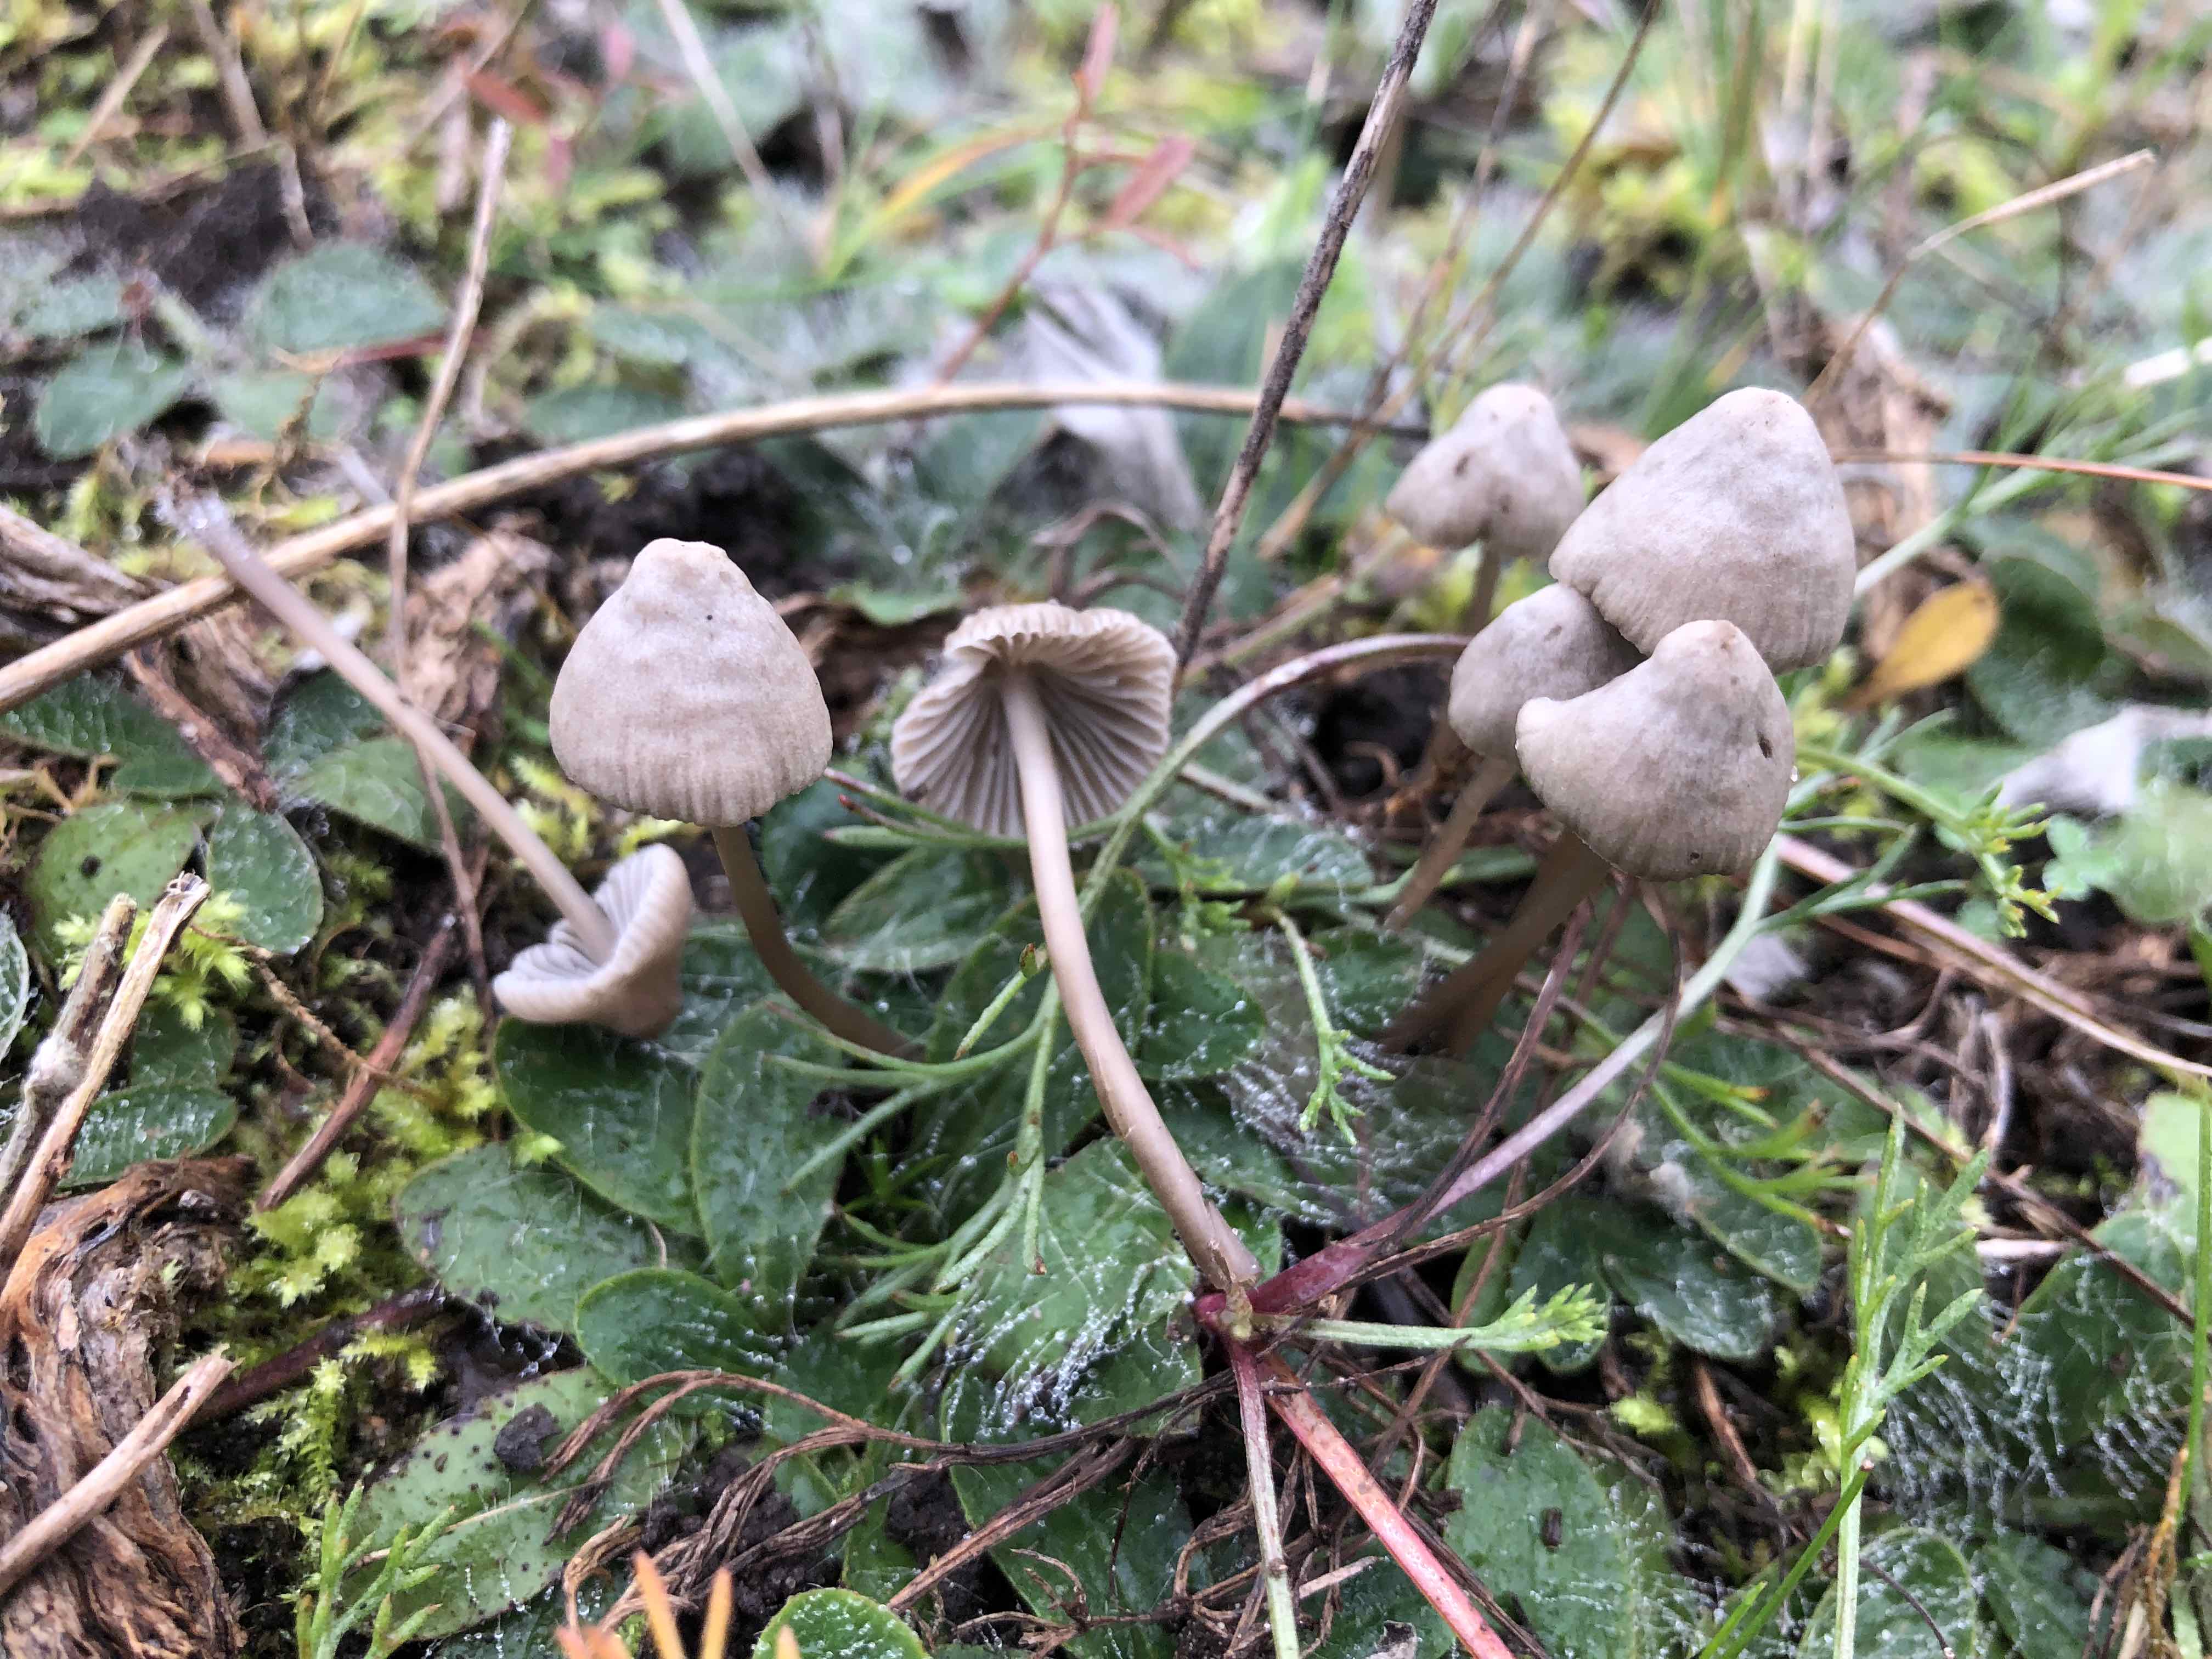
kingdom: Fungi
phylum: Basidiomycota
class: Agaricomycetes
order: Agaricales
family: Mycenaceae
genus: Mycena
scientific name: Mycena
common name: huesvamp
